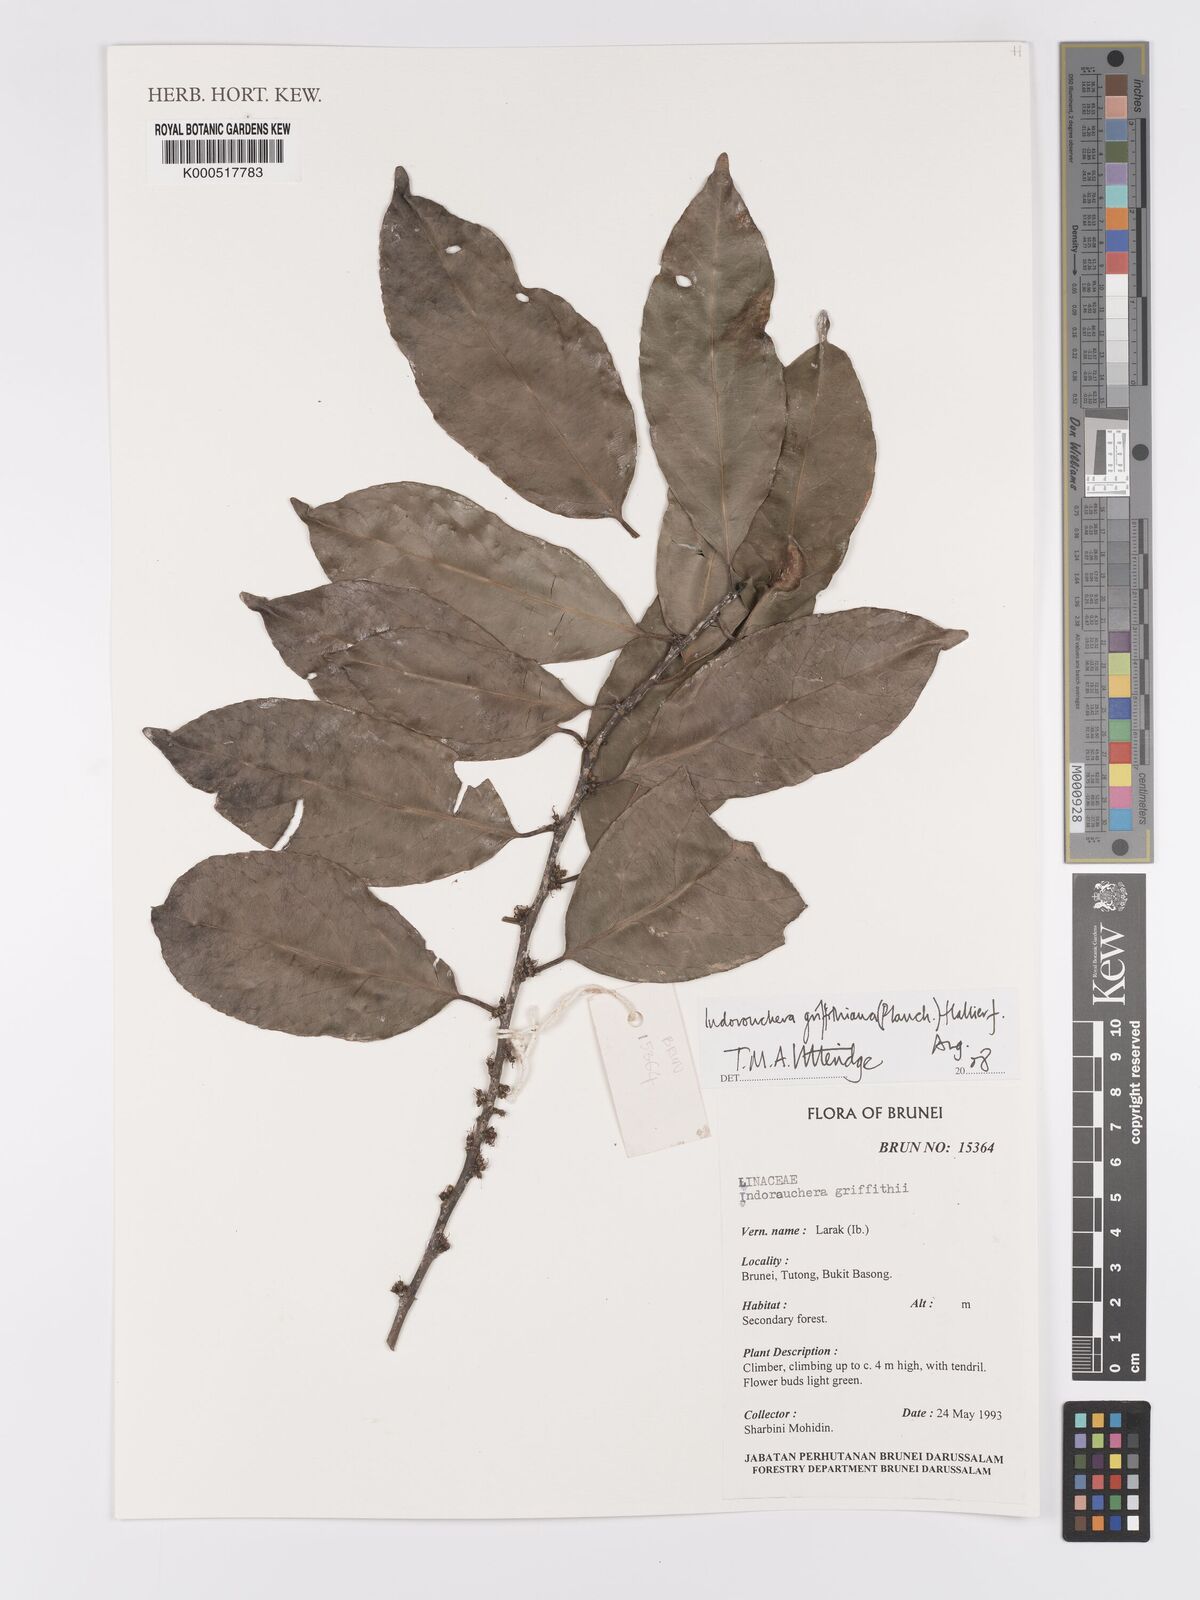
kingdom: Plantae
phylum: Tracheophyta
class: Magnoliopsida
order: Malpighiales
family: Linaceae
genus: Indorouchera
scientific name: Indorouchera griffithiana
